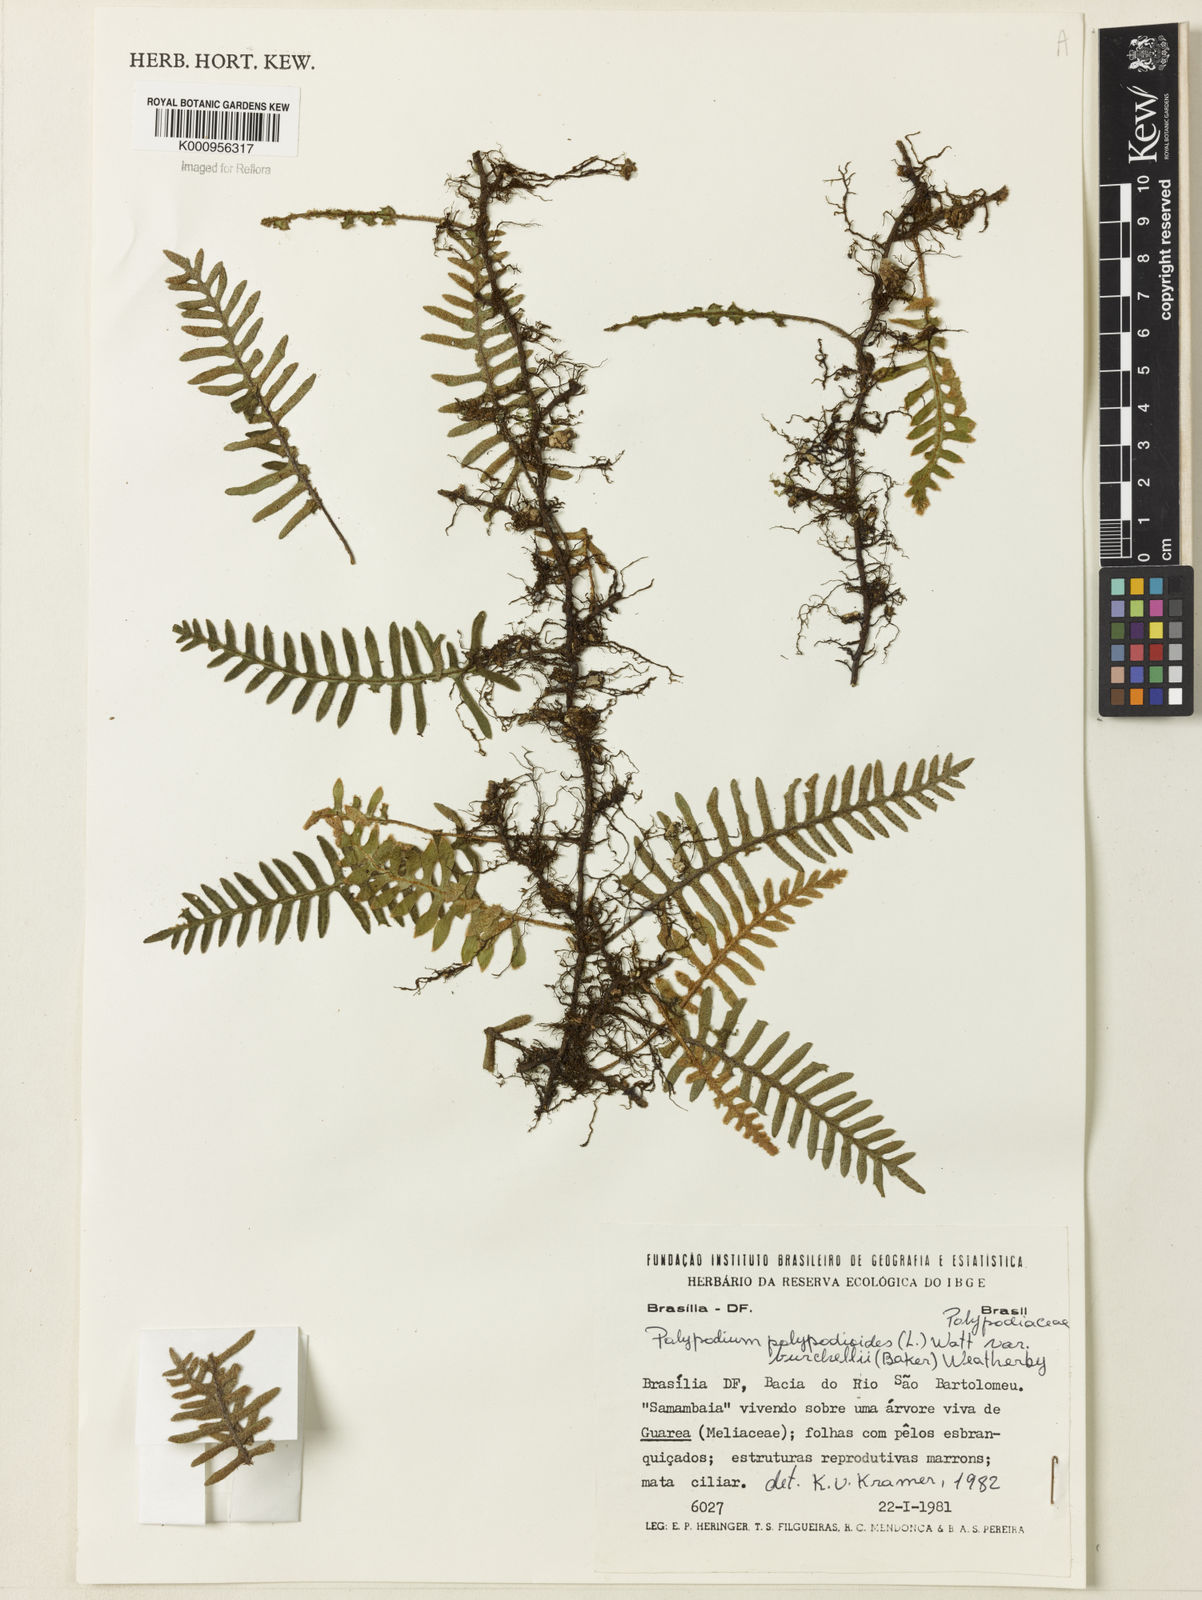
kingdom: Plantae
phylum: Tracheophyta
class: Polypodiopsida
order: Polypodiales
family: Polypodiaceae
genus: Pleopeltis
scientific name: Pleopeltis burchellii
